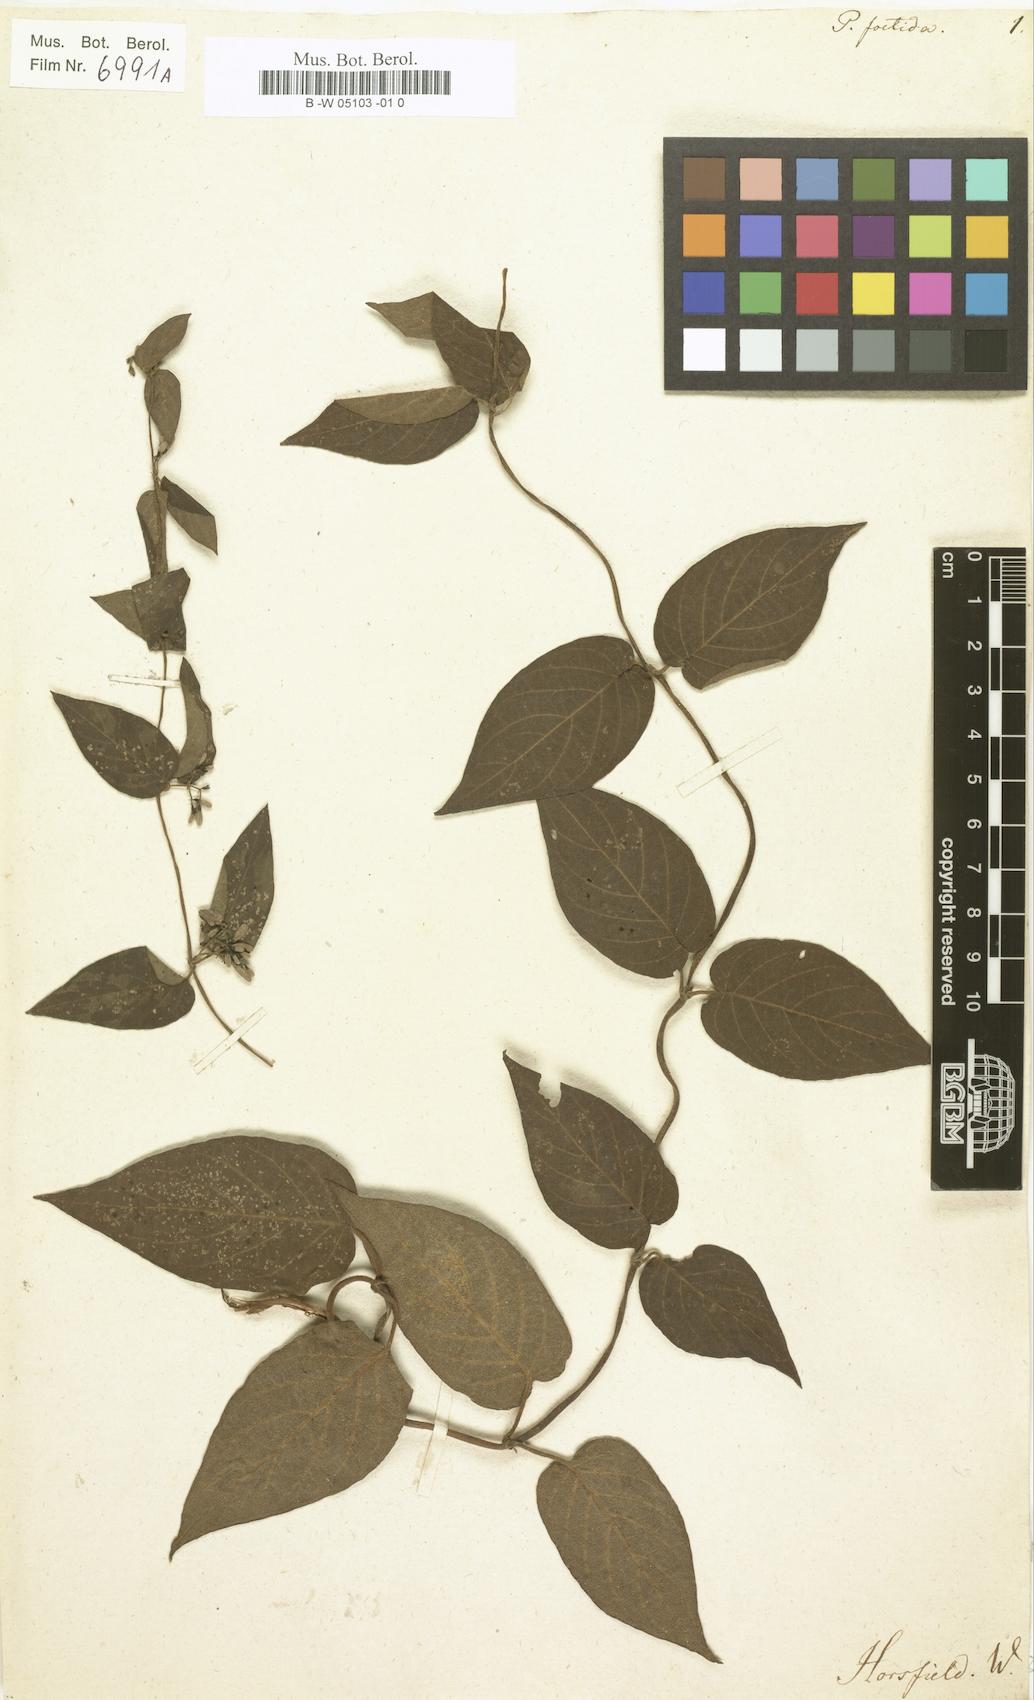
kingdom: Plantae
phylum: Tracheophyta
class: Magnoliopsida
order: Gentianales
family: Rubiaceae
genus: Paederia
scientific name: Paederia foetida
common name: Stinkvine
